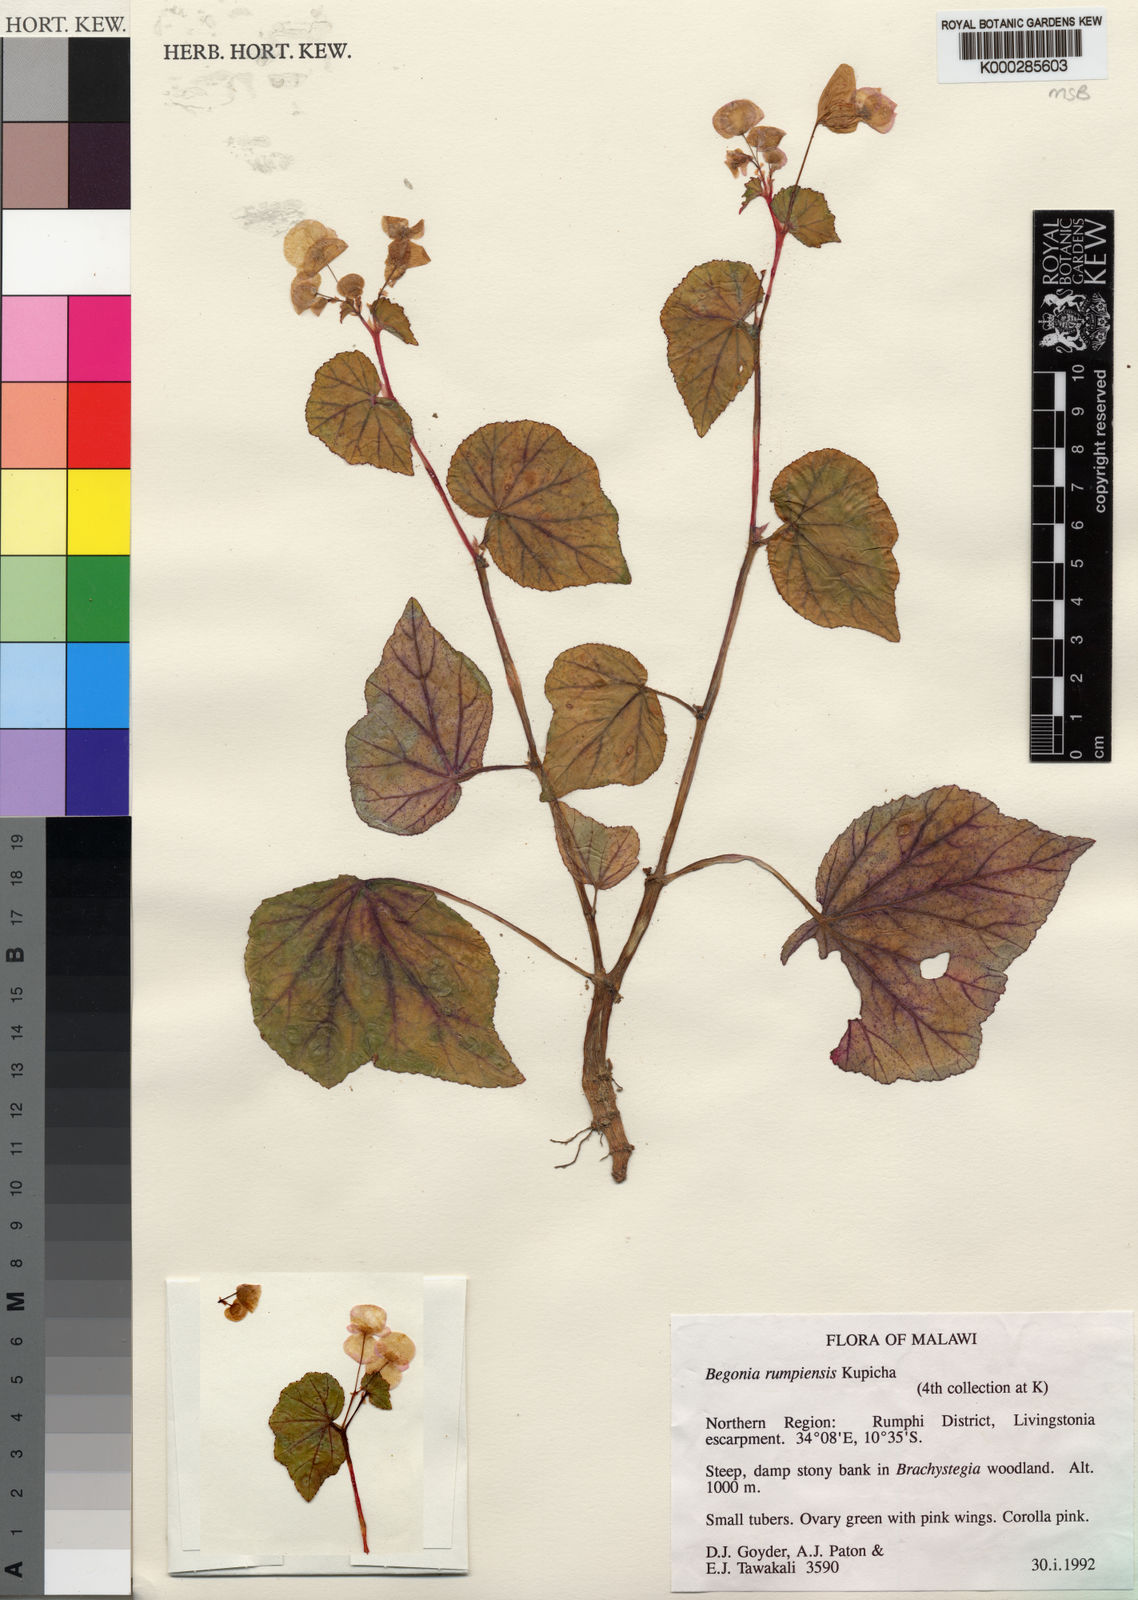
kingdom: Plantae
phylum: Tracheophyta
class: Magnoliopsida
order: Cucurbitales
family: Begoniaceae
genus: Begonia
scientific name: Begonia rumpiensis
